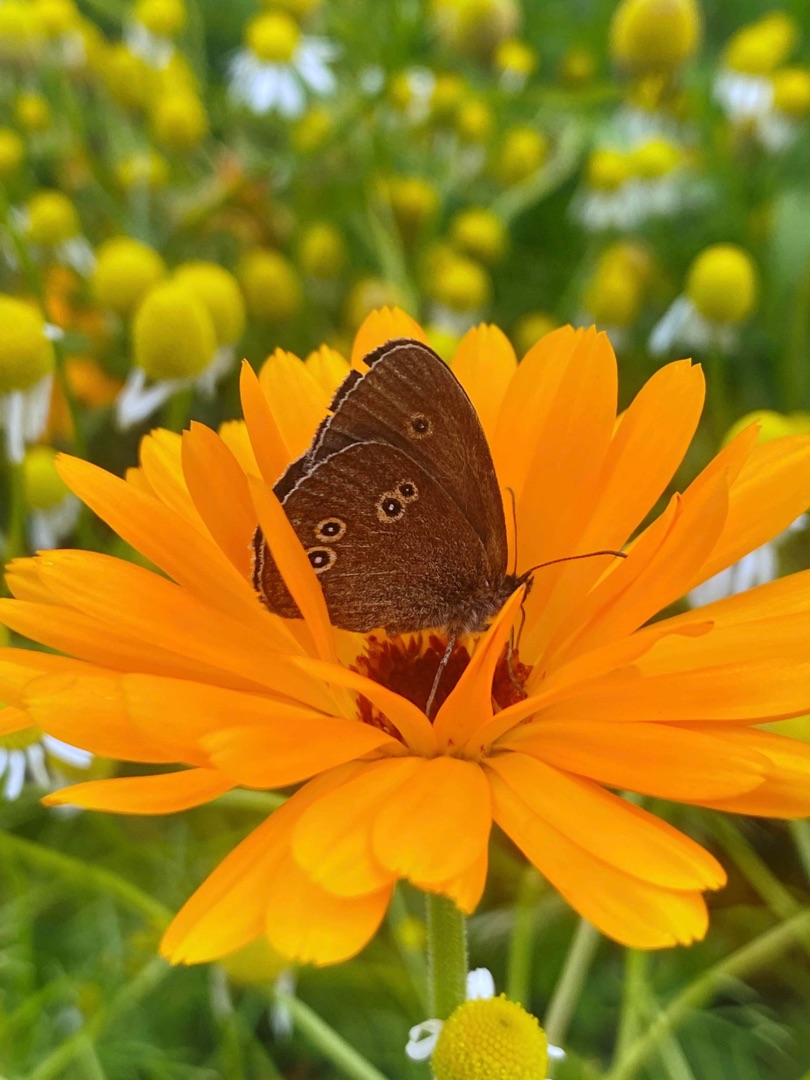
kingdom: Animalia
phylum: Arthropoda
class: Insecta
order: Lepidoptera
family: Nymphalidae
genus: Aphantopus
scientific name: Aphantopus hyperantus
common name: Engrandøje
